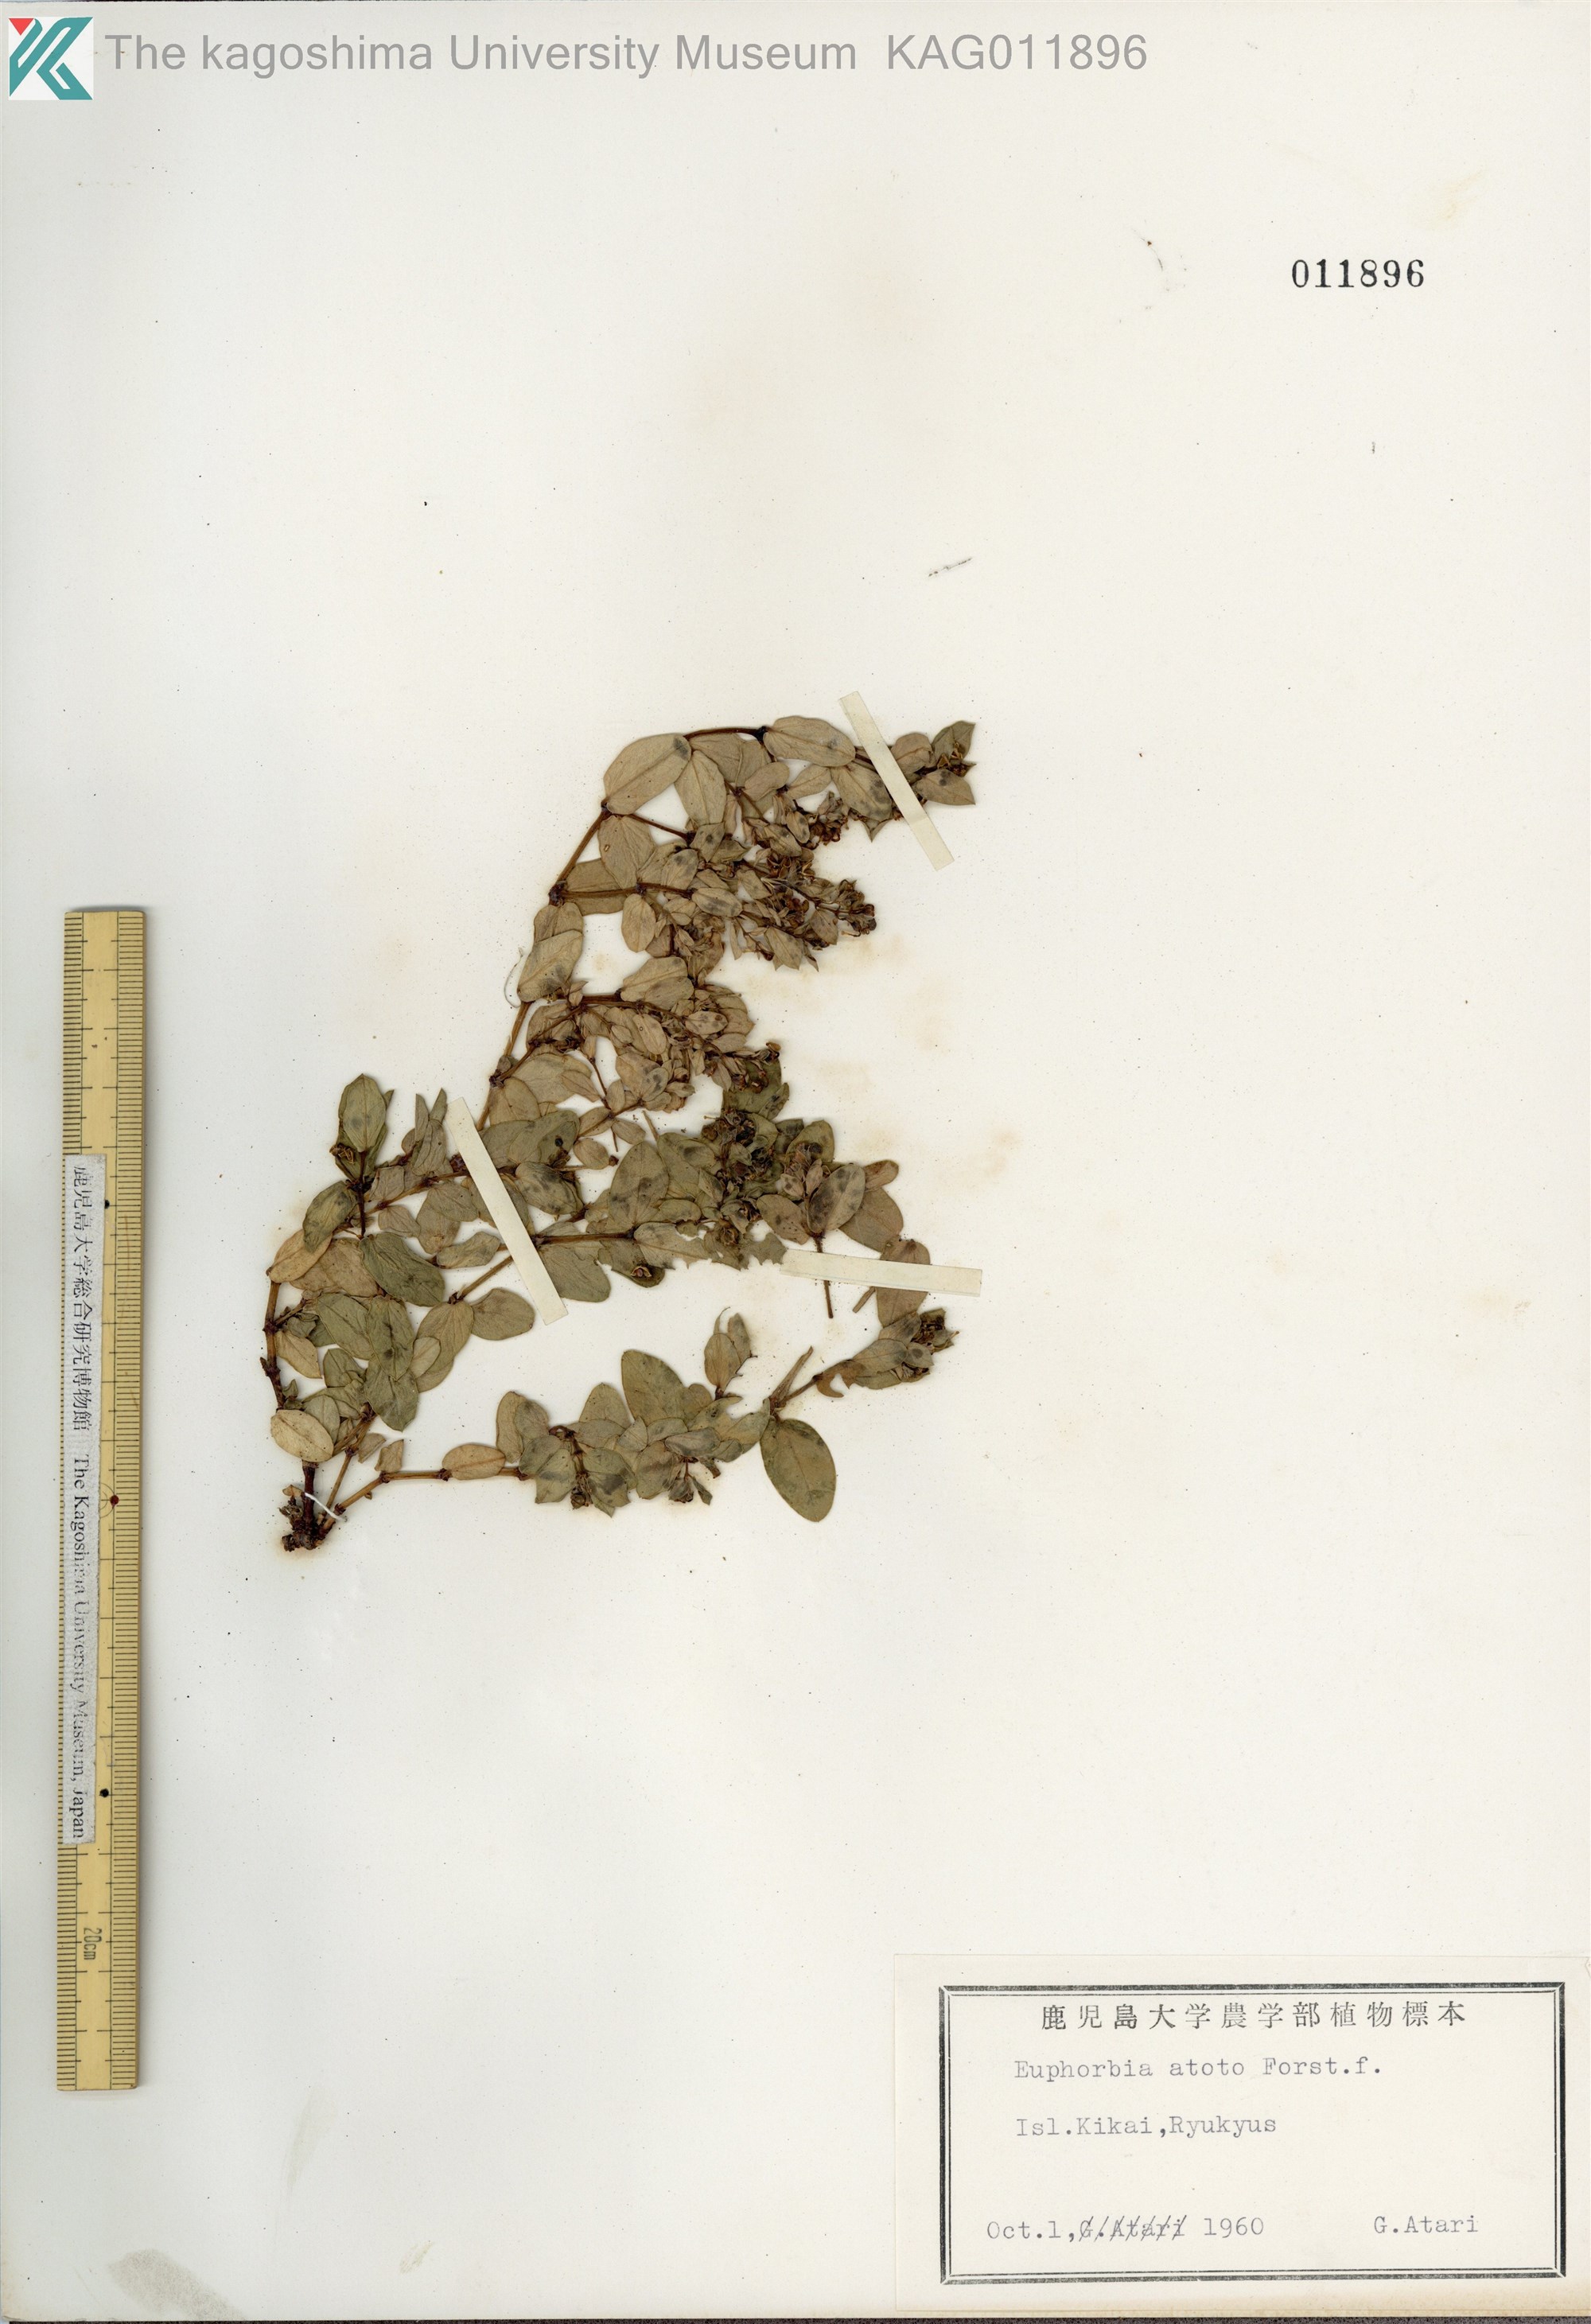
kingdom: Plantae
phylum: Tracheophyta
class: Magnoliopsida
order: Malpighiales
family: Euphorbiaceae
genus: Euphorbia
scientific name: Euphorbia chamissonis
